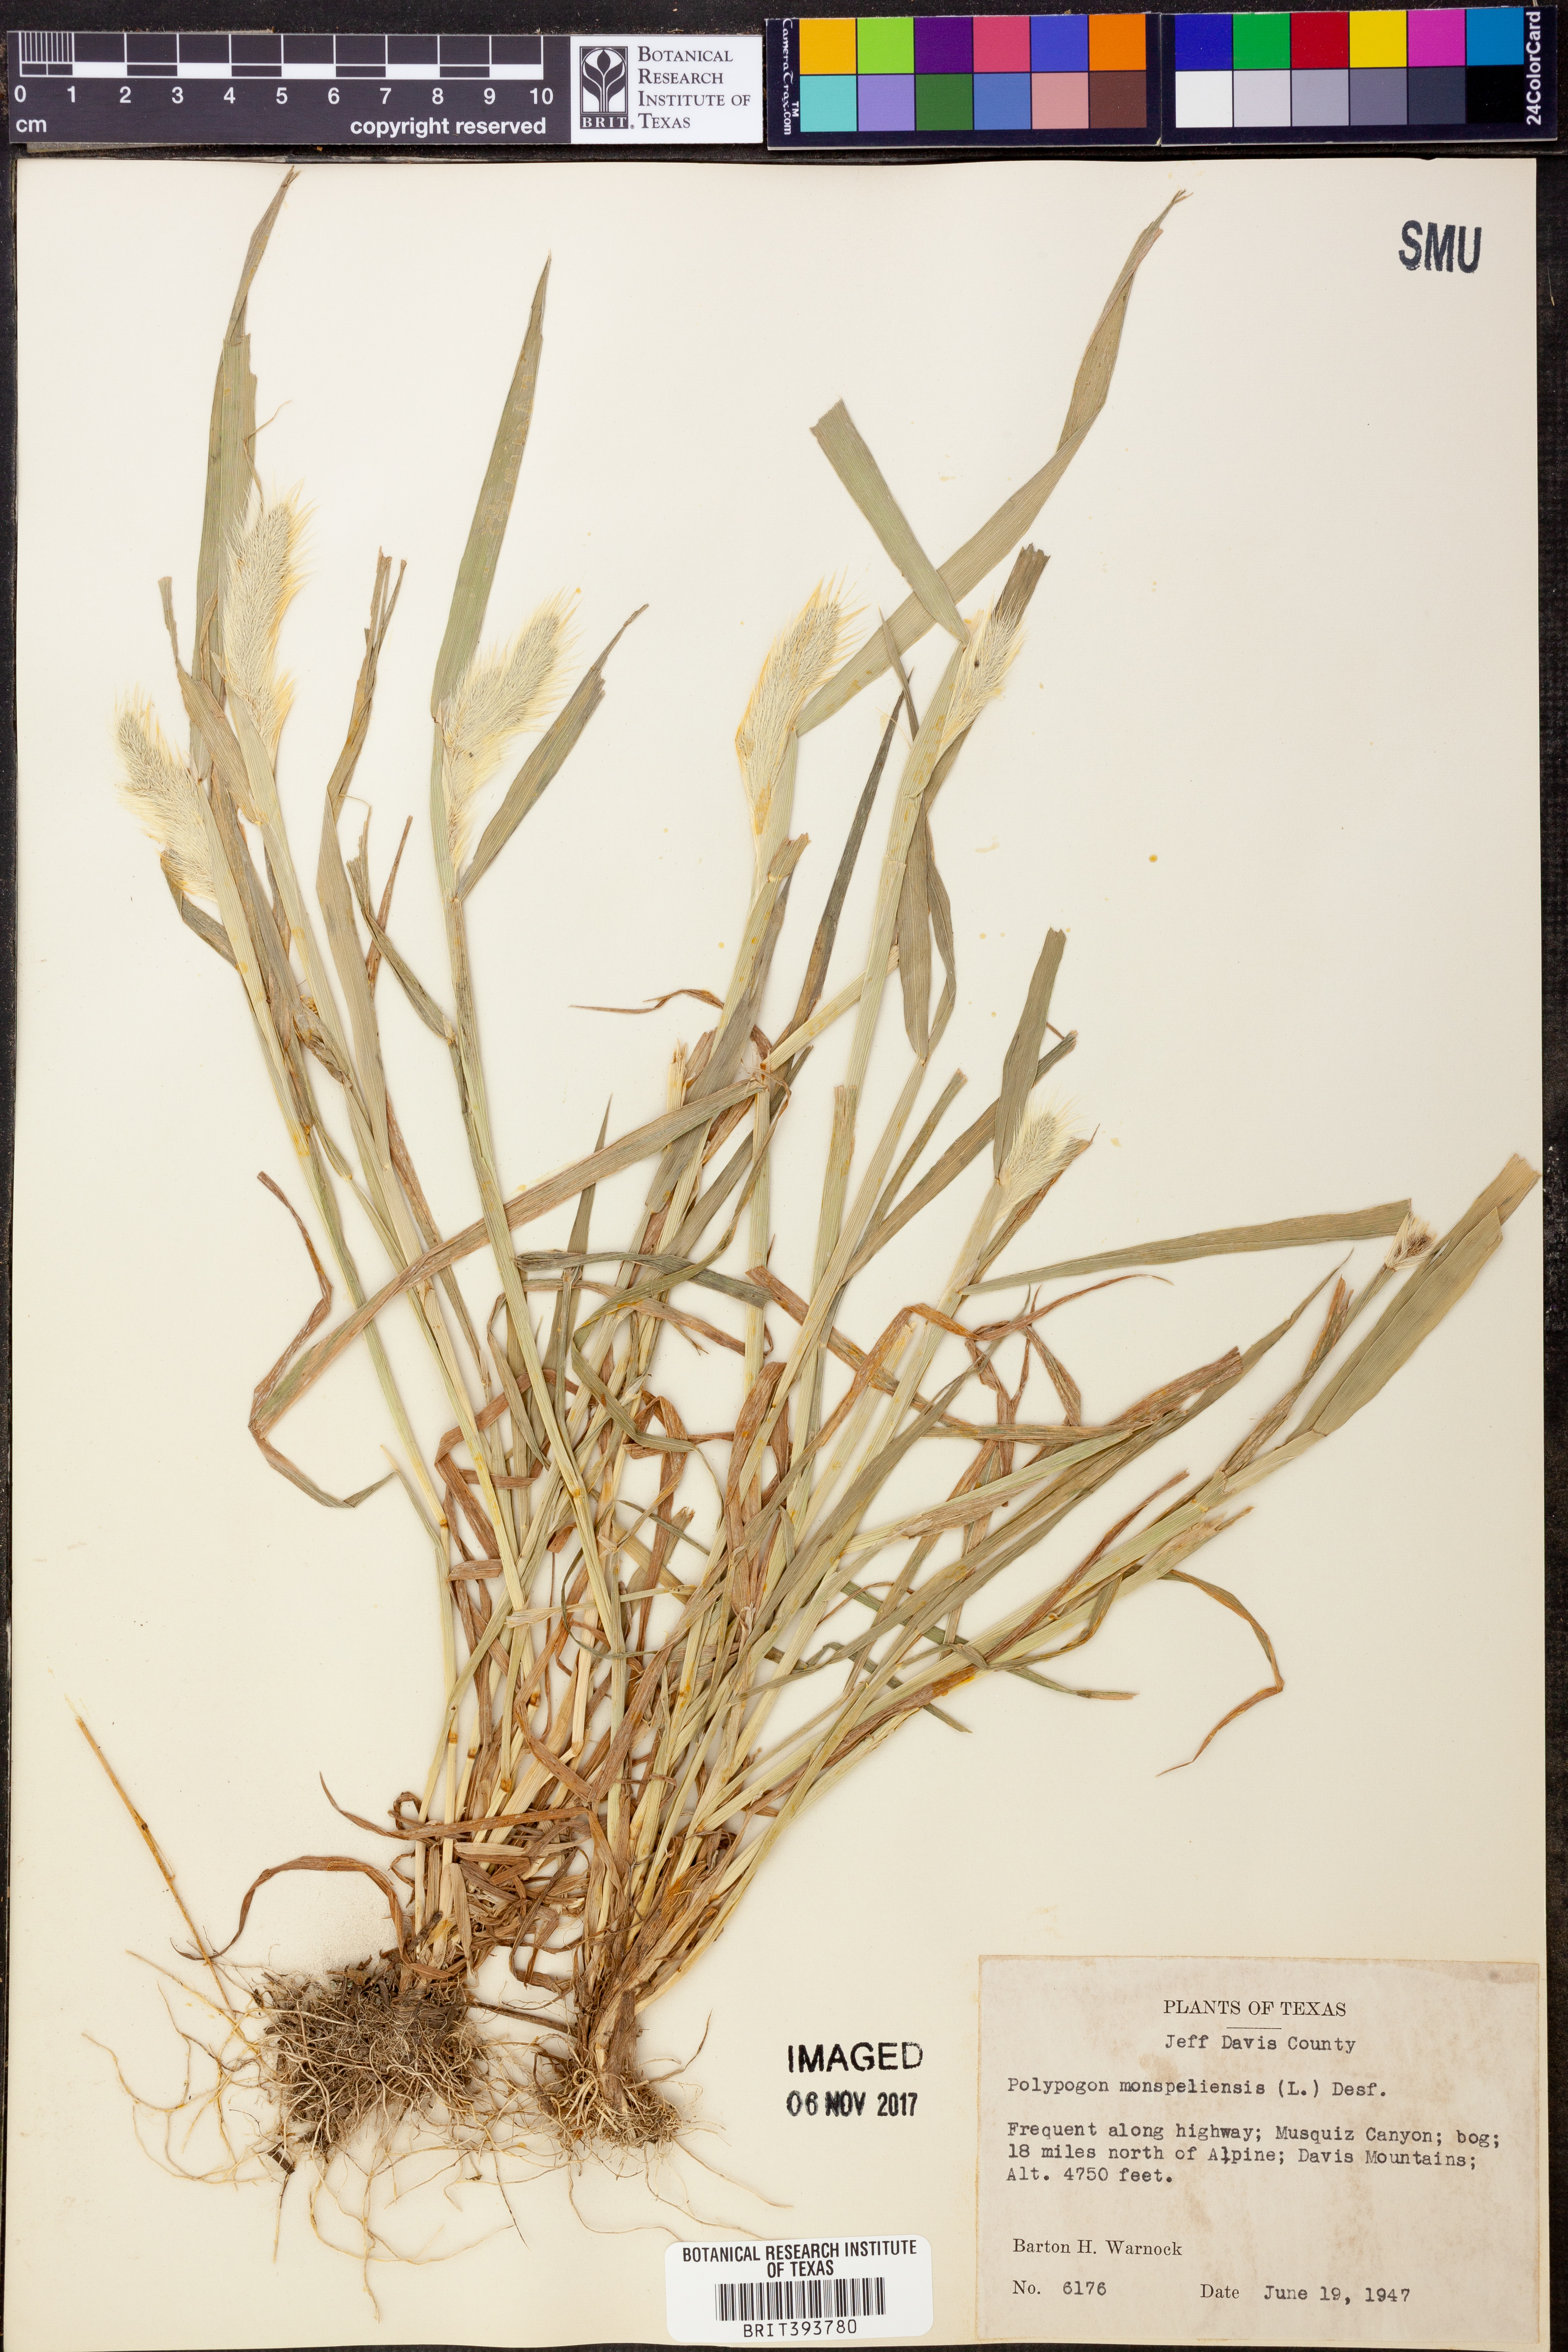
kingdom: Plantae
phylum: Tracheophyta
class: Liliopsida
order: Poales
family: Poaceae
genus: Polypogon
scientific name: Polypogon monspeliensis
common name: Annual rabbitsfoot grass
